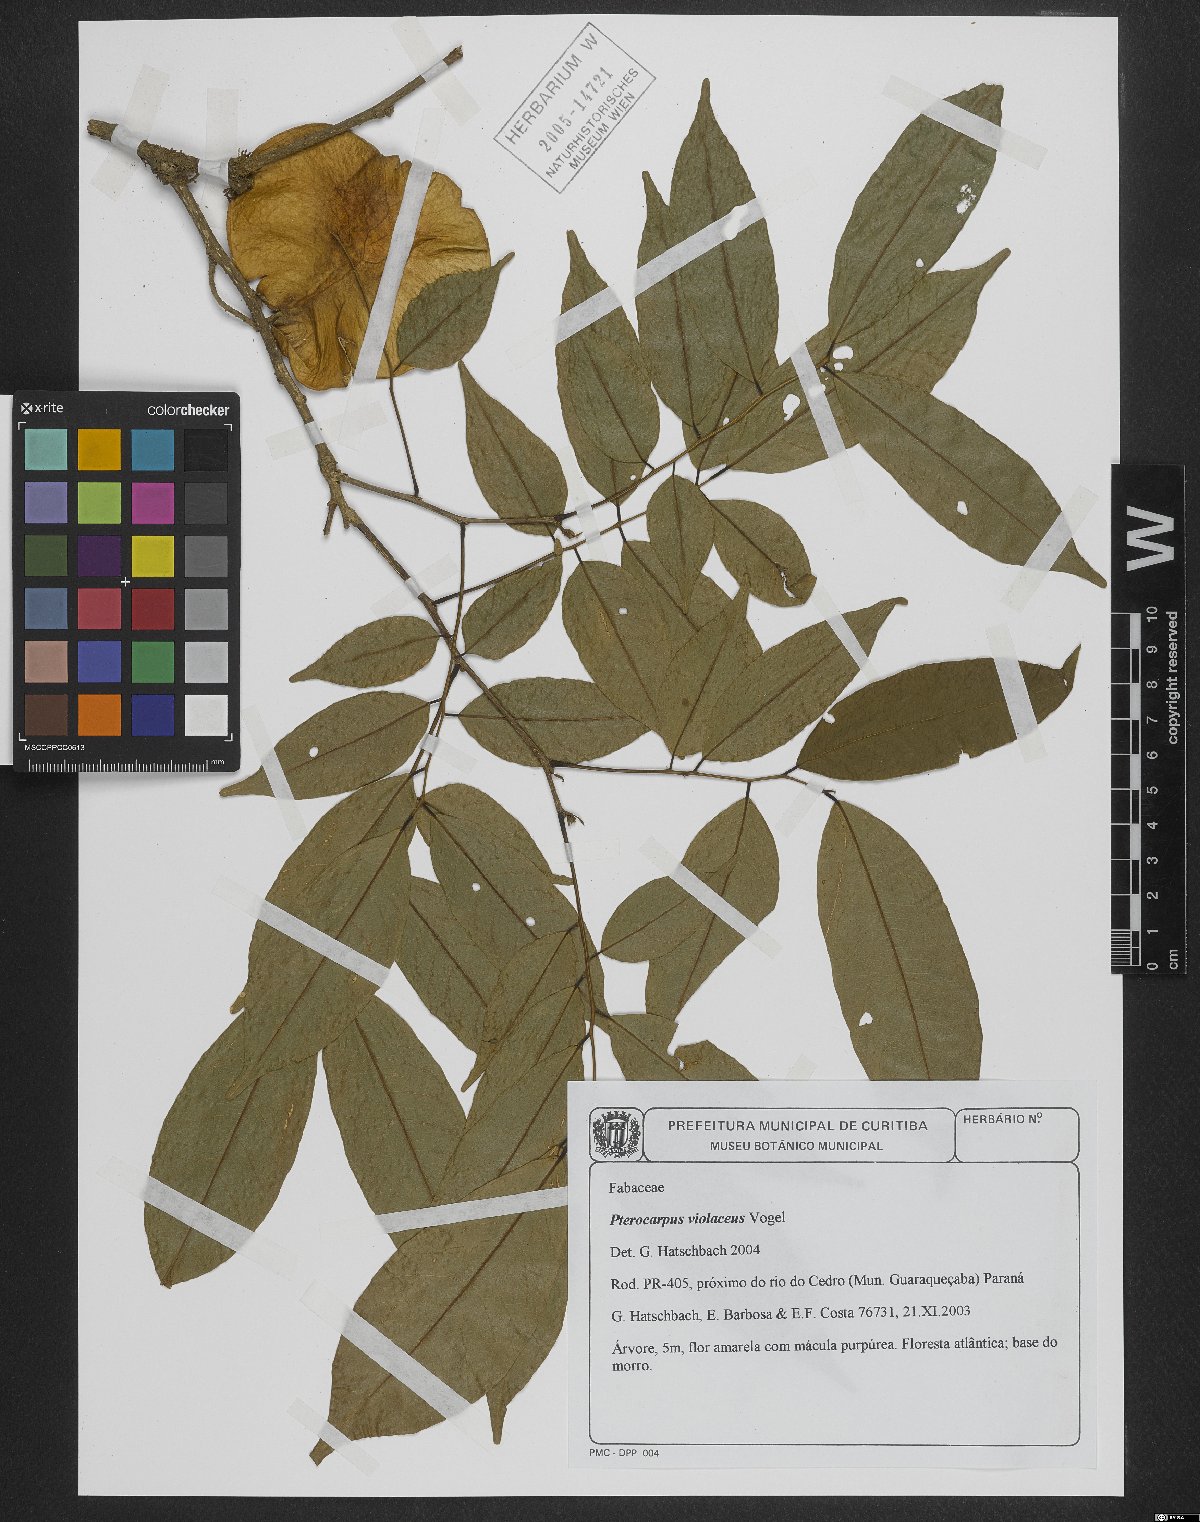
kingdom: Plantae
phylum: Tracheophyta
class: Magnoliopsida
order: Fabales
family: Fabaceae
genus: Pterocarpus
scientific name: Pterocarpus rohrii
